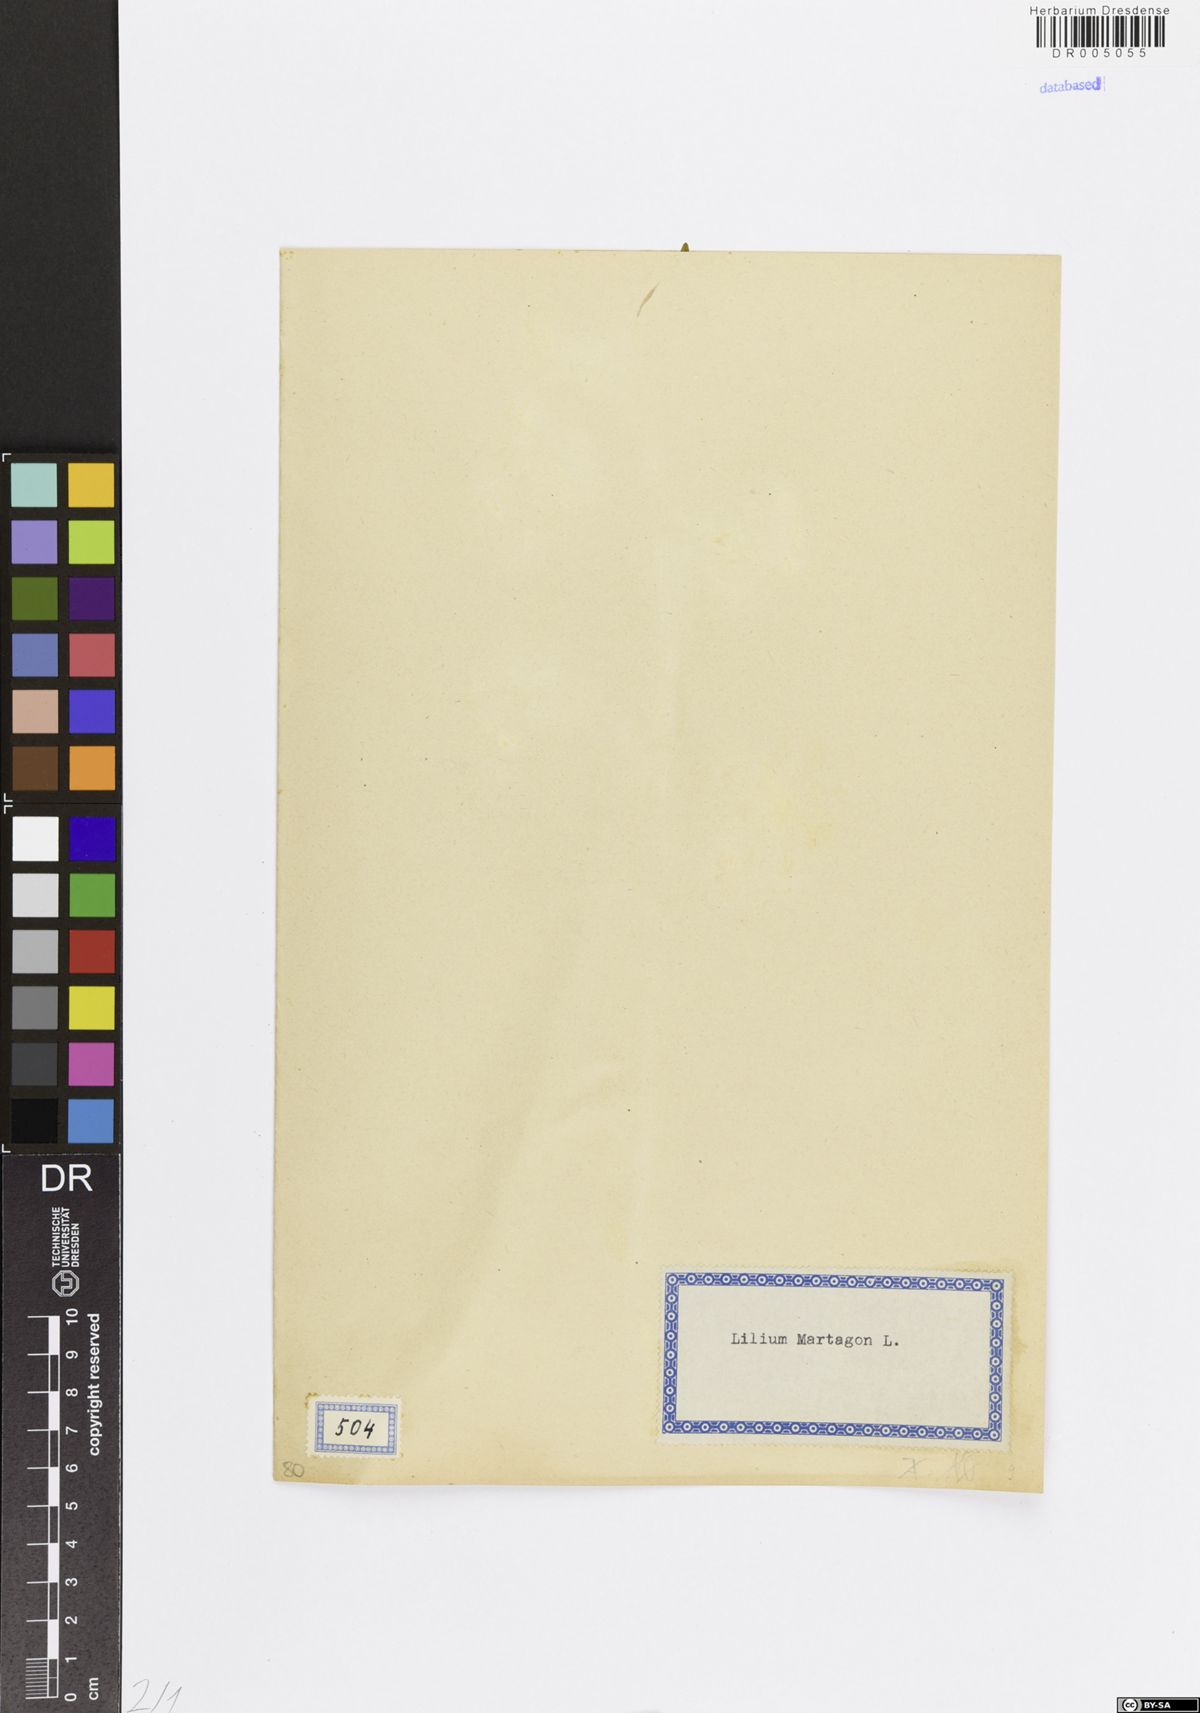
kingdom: Plantae
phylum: Tracheophyta
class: Liliopsida
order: Liliales
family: Liliaceae
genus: Lilium
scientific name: Lilium martagon
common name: Martagon lily
